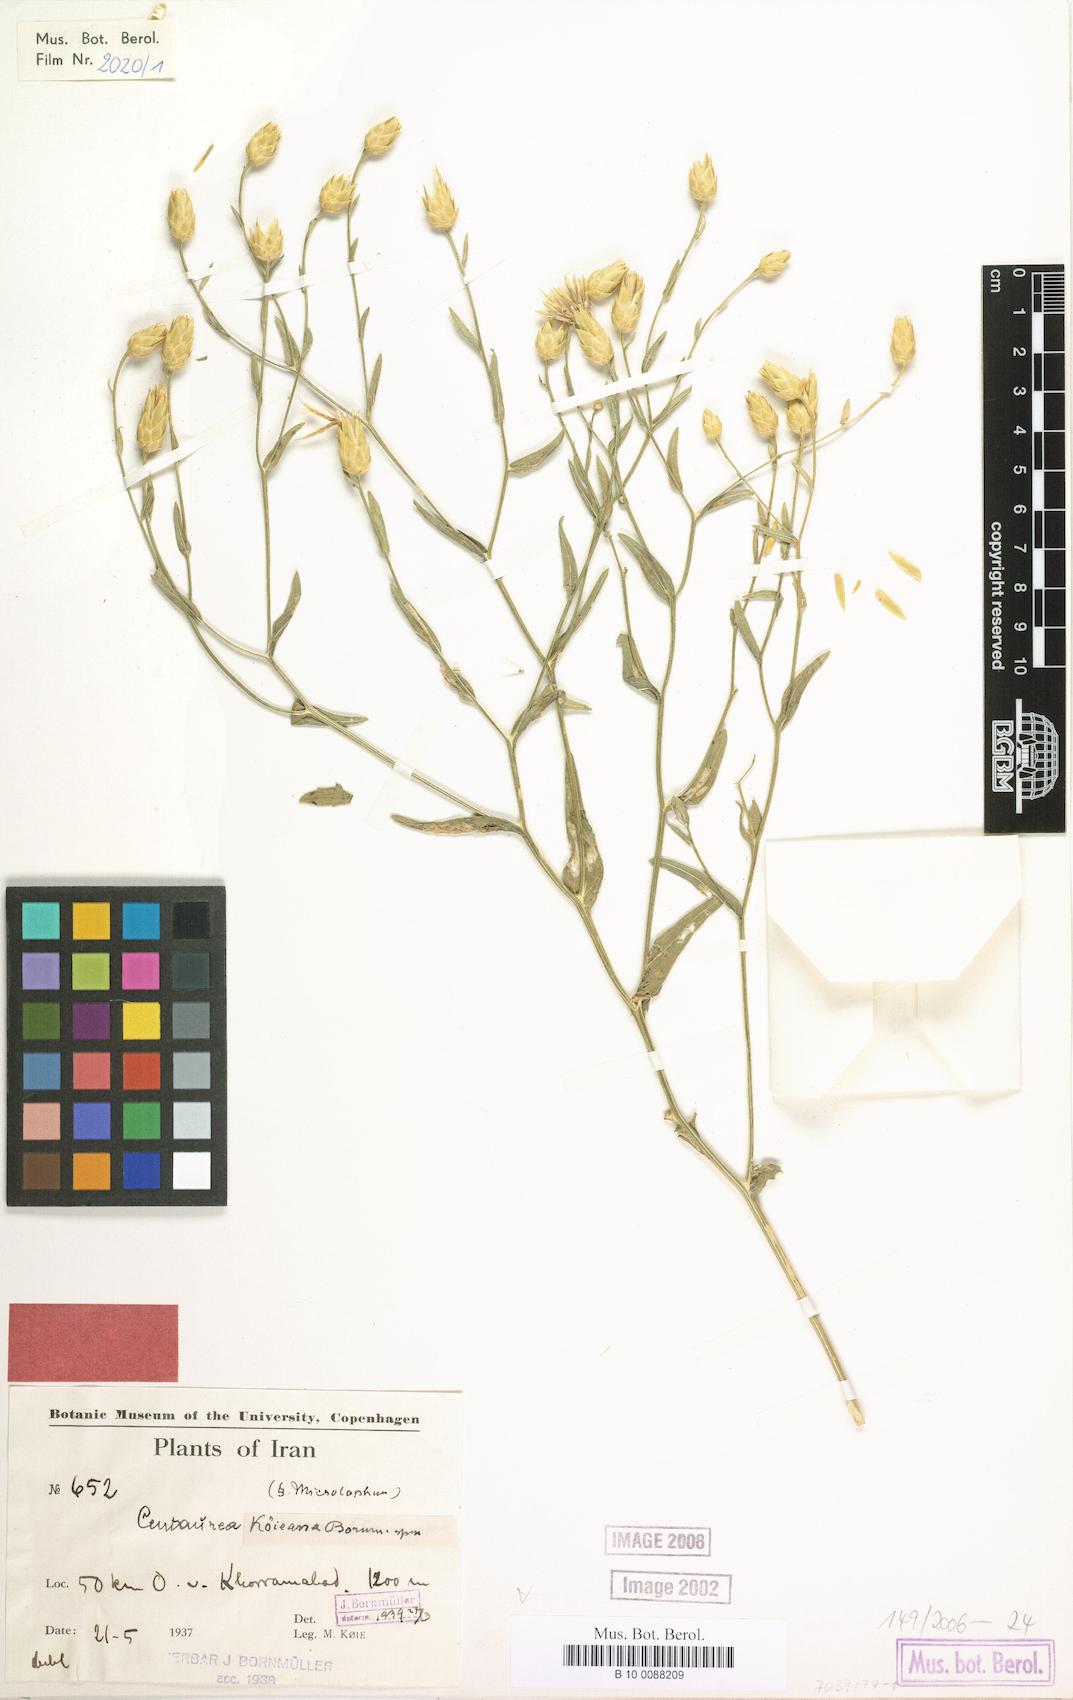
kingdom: Plantae
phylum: Tracheophyta
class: Magnoliopsida
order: Asterales
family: Asteraceae
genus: Centaurea
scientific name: Centaurea koeieana
